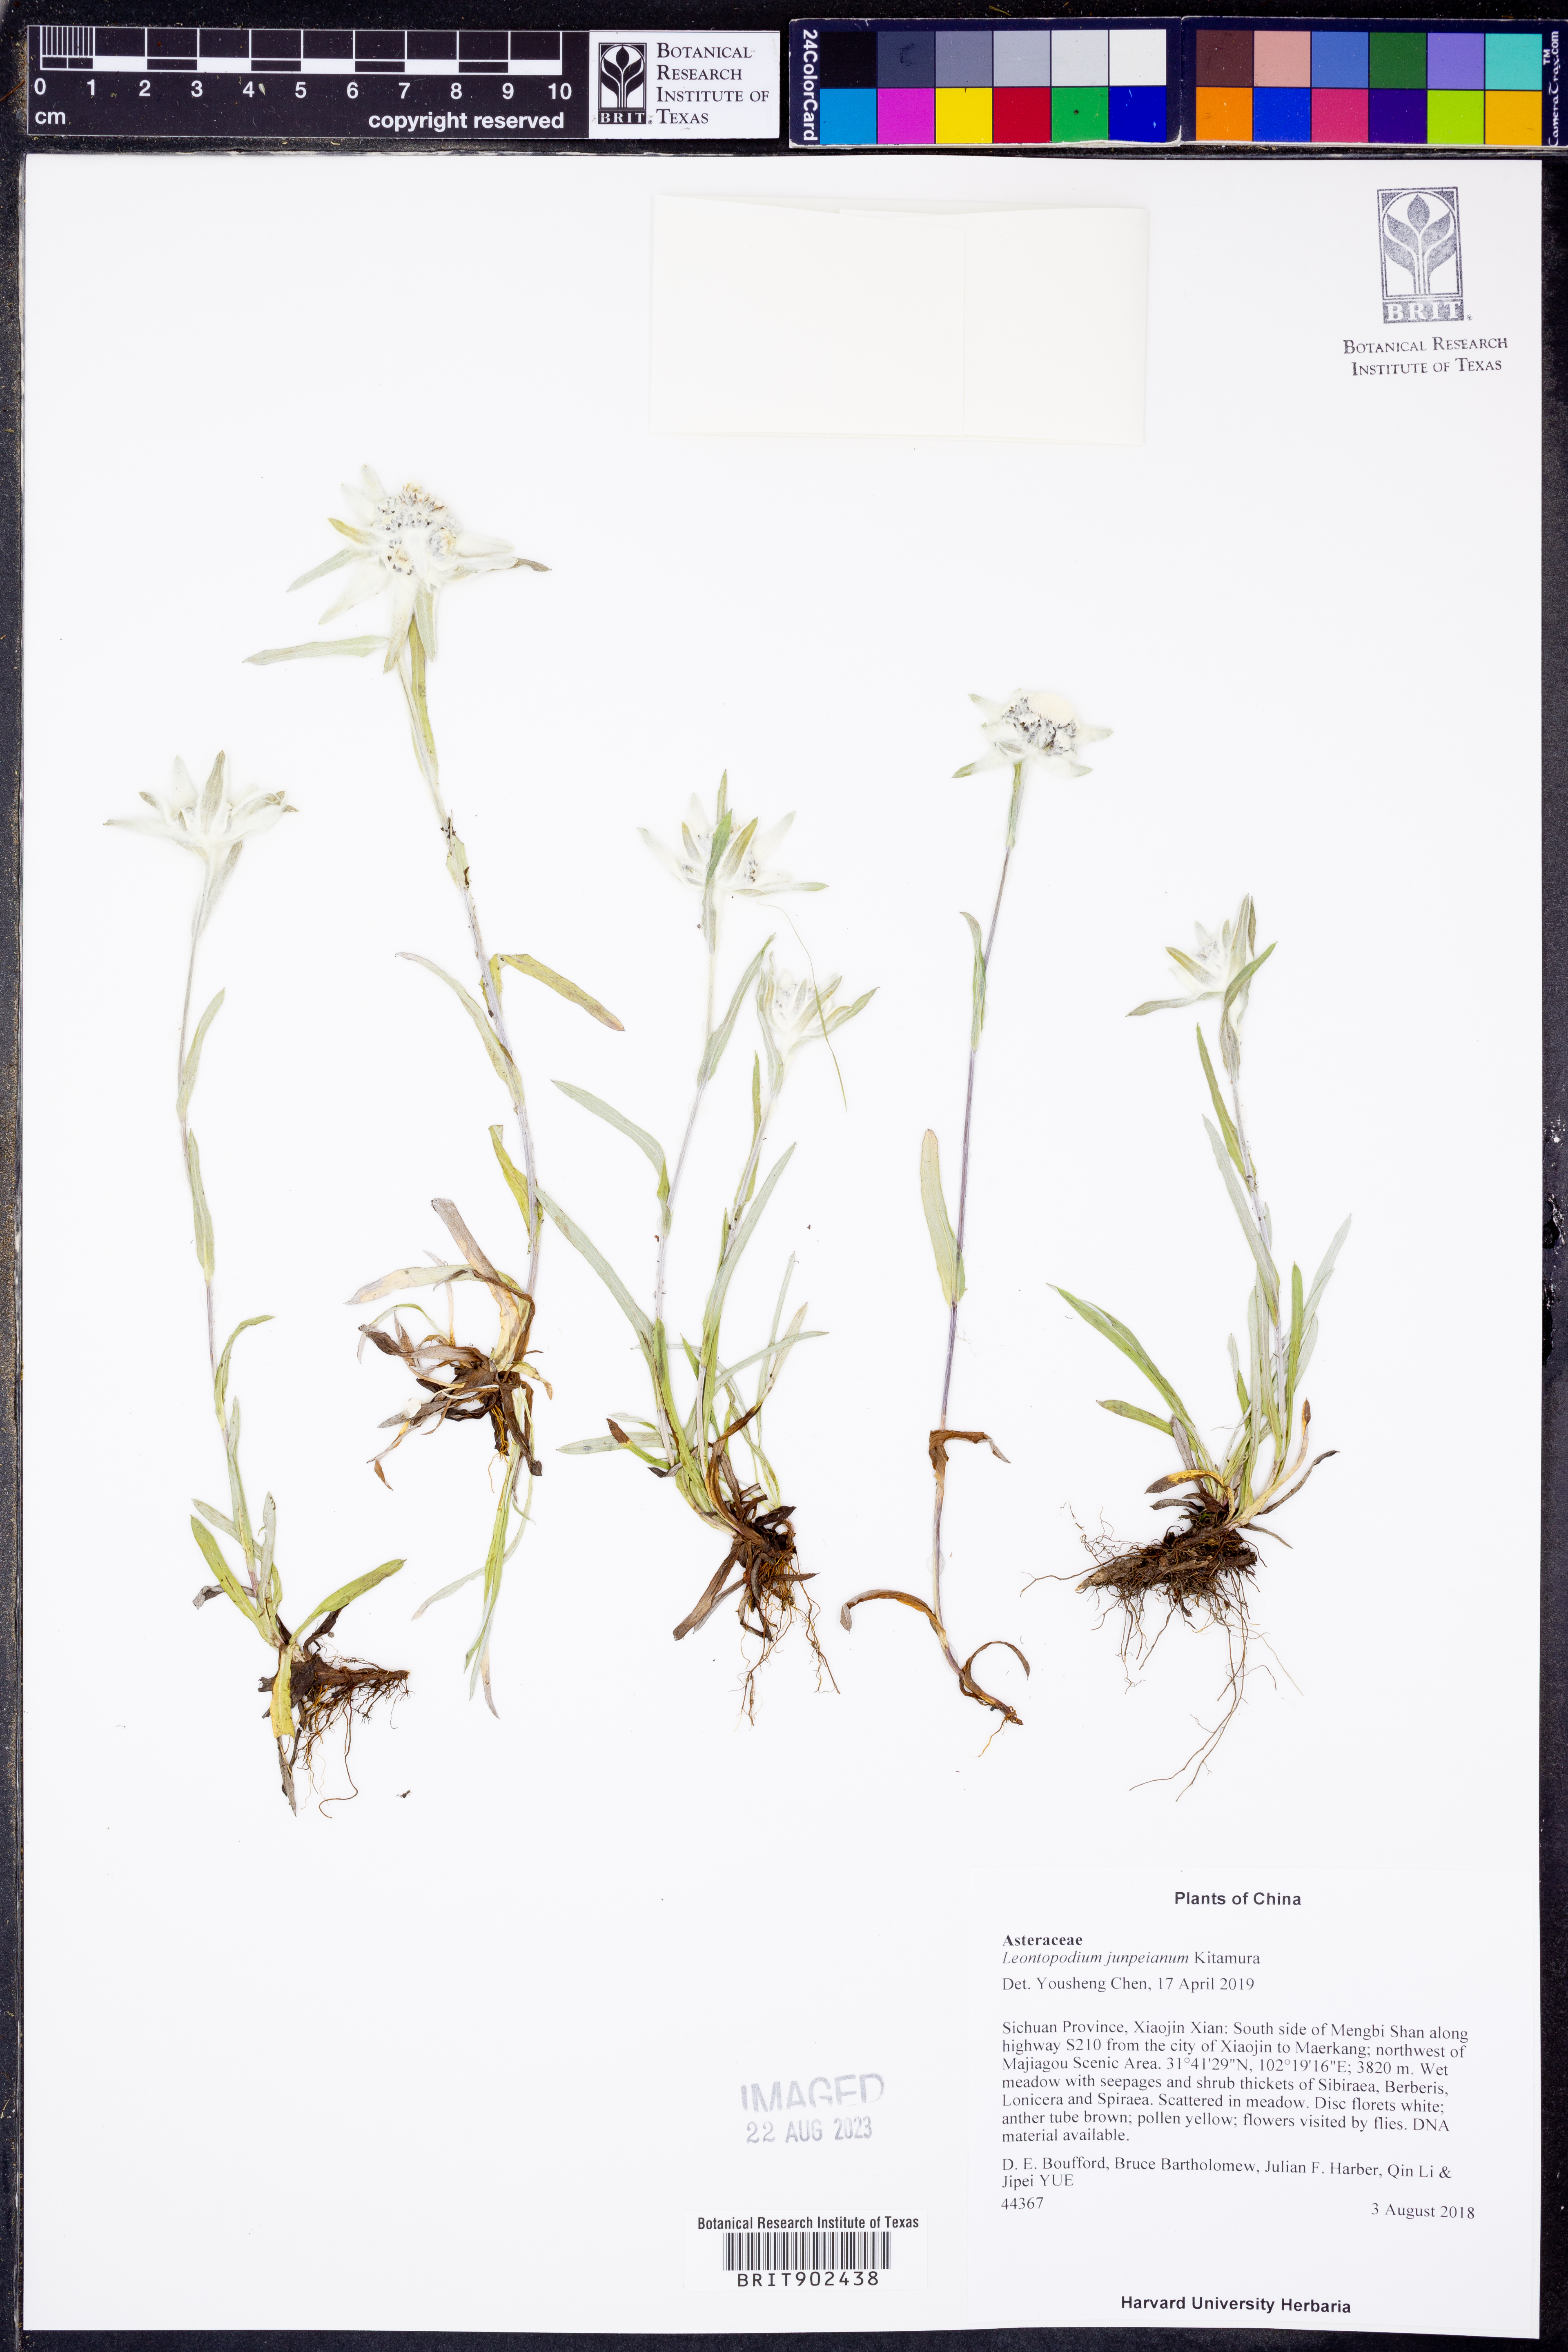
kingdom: Plantae
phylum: Tracheophyta
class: Magnoliopsida
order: Asterales
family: Asteraceae
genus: Leontopodium
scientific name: Leontopodium junpeianum
